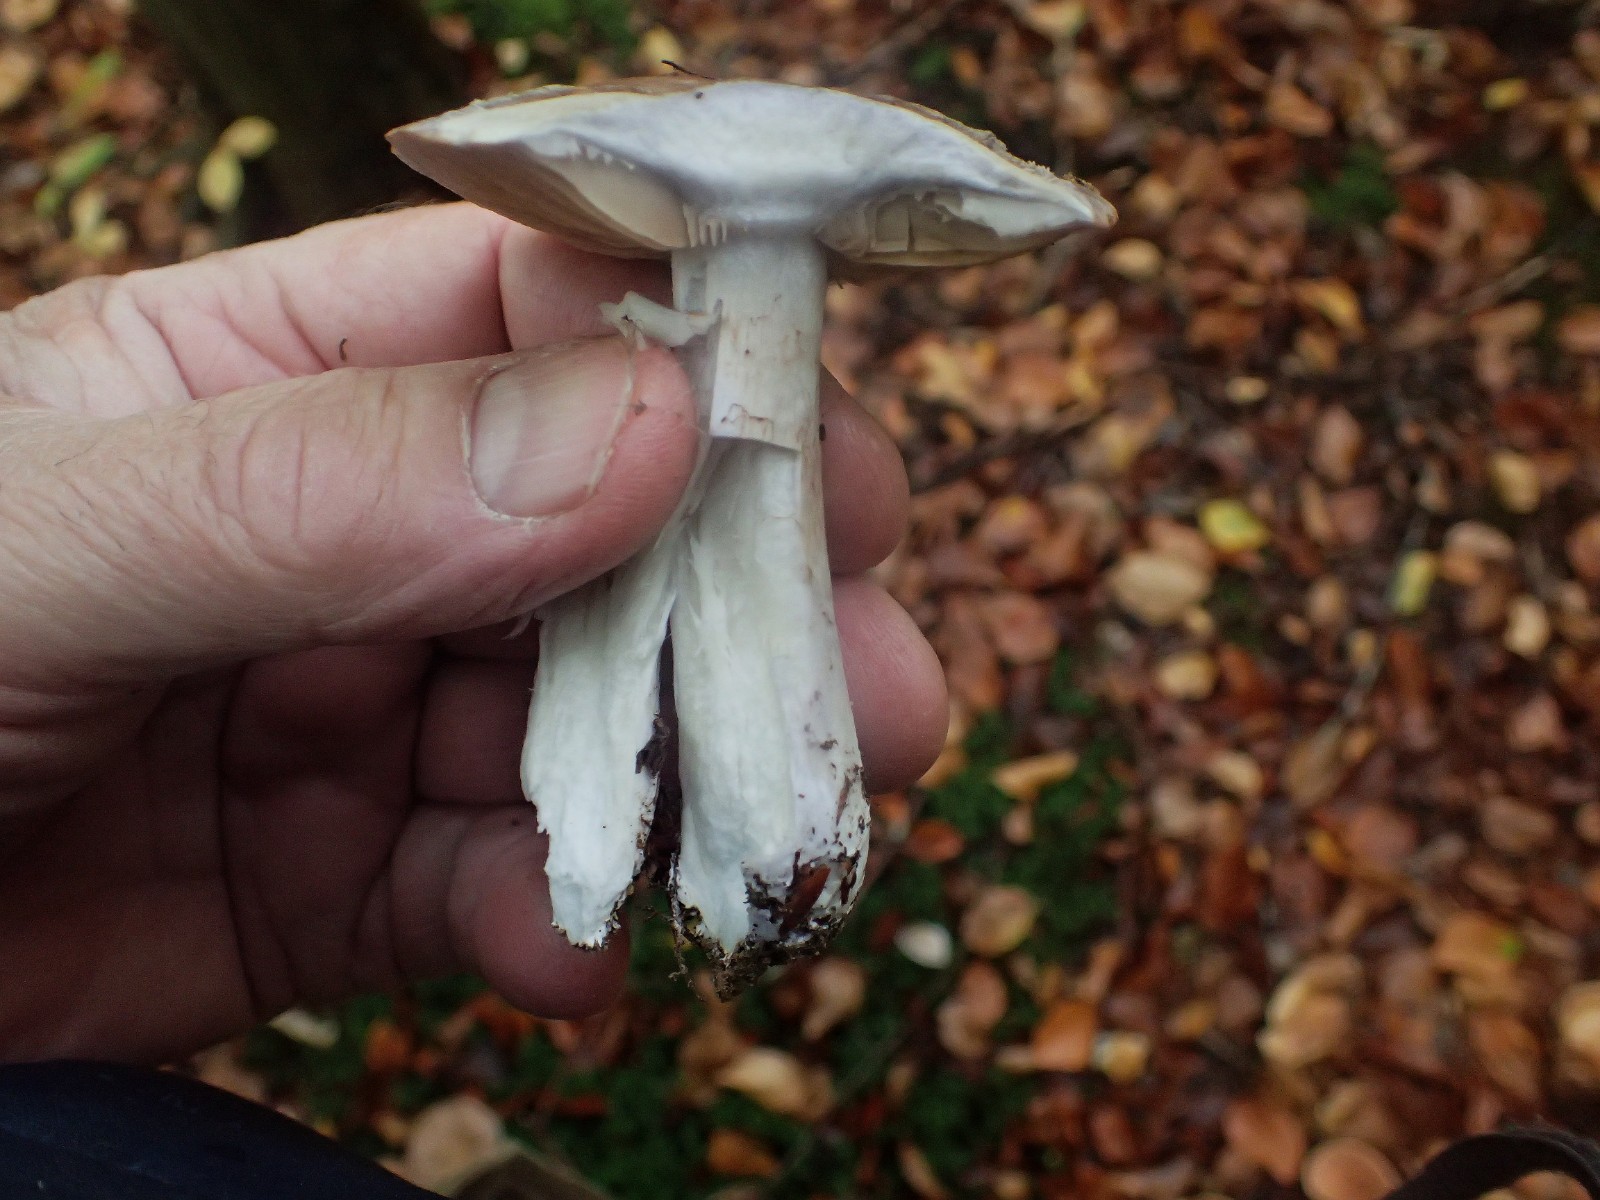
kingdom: Fungi
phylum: Basidiomycota
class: Agaricomycetes
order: Agaricales
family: Cortinariaceae
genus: Cortinarius
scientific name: Cortinarius
